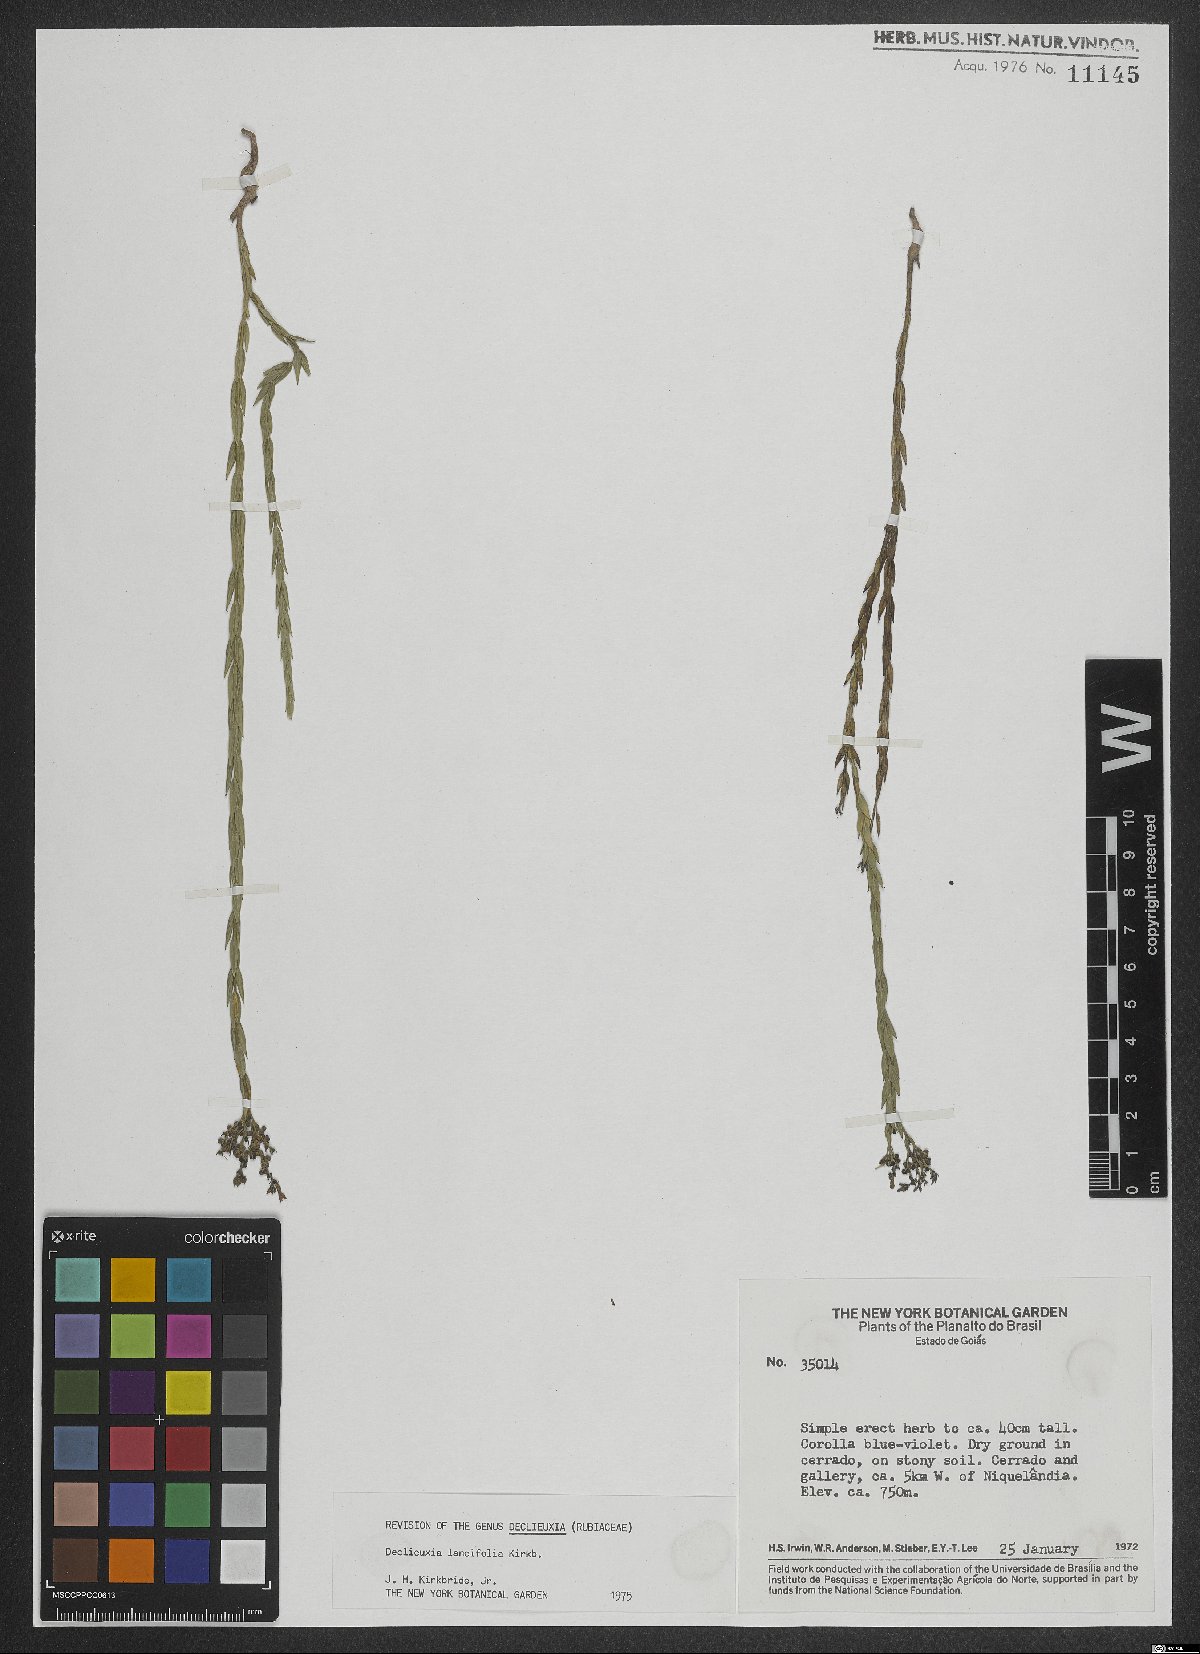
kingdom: Plantae
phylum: Tracheophyta
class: Magnoliopsida
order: Gentianales
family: Rubiaceae
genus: Declieuxia
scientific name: Declieuxia lancifolia
